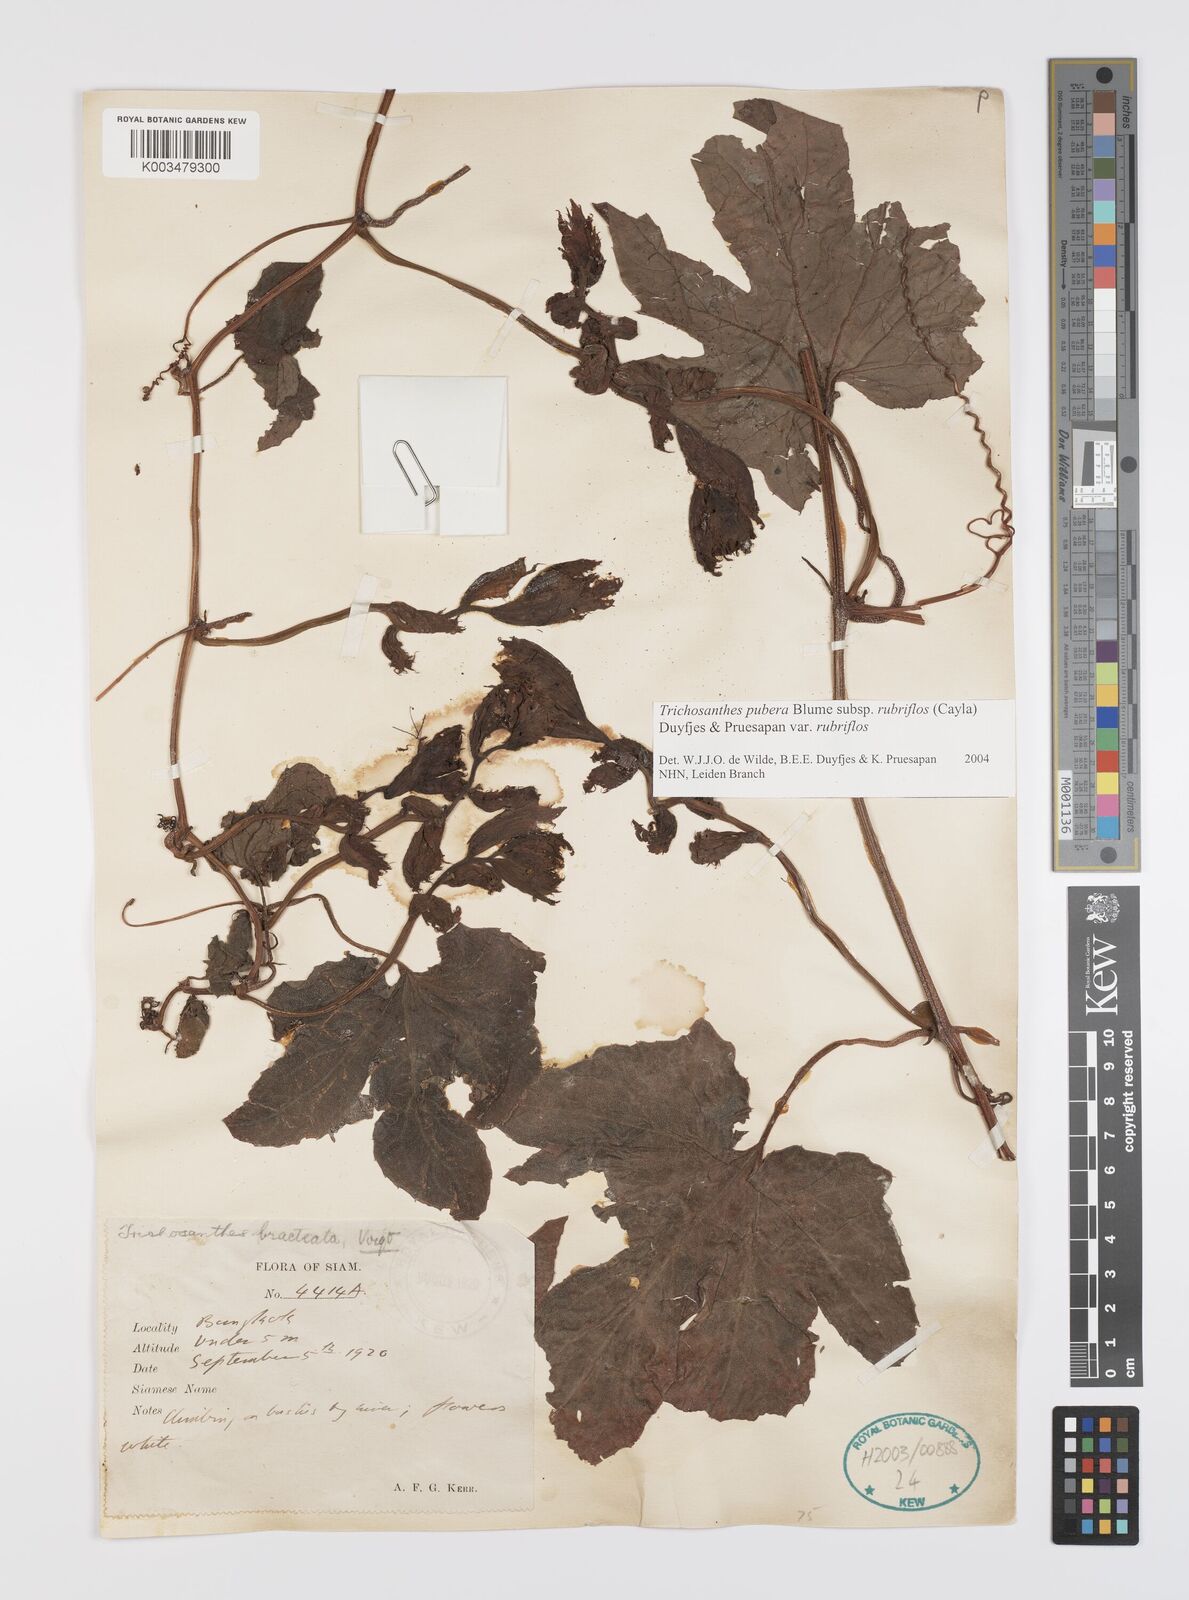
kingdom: Plantae
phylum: Tracheophyta
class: Magnoliopsida
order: Cucurbitales
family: Cucurbitaceae
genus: Trichosanthes
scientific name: Trichosanthes rubriflos
